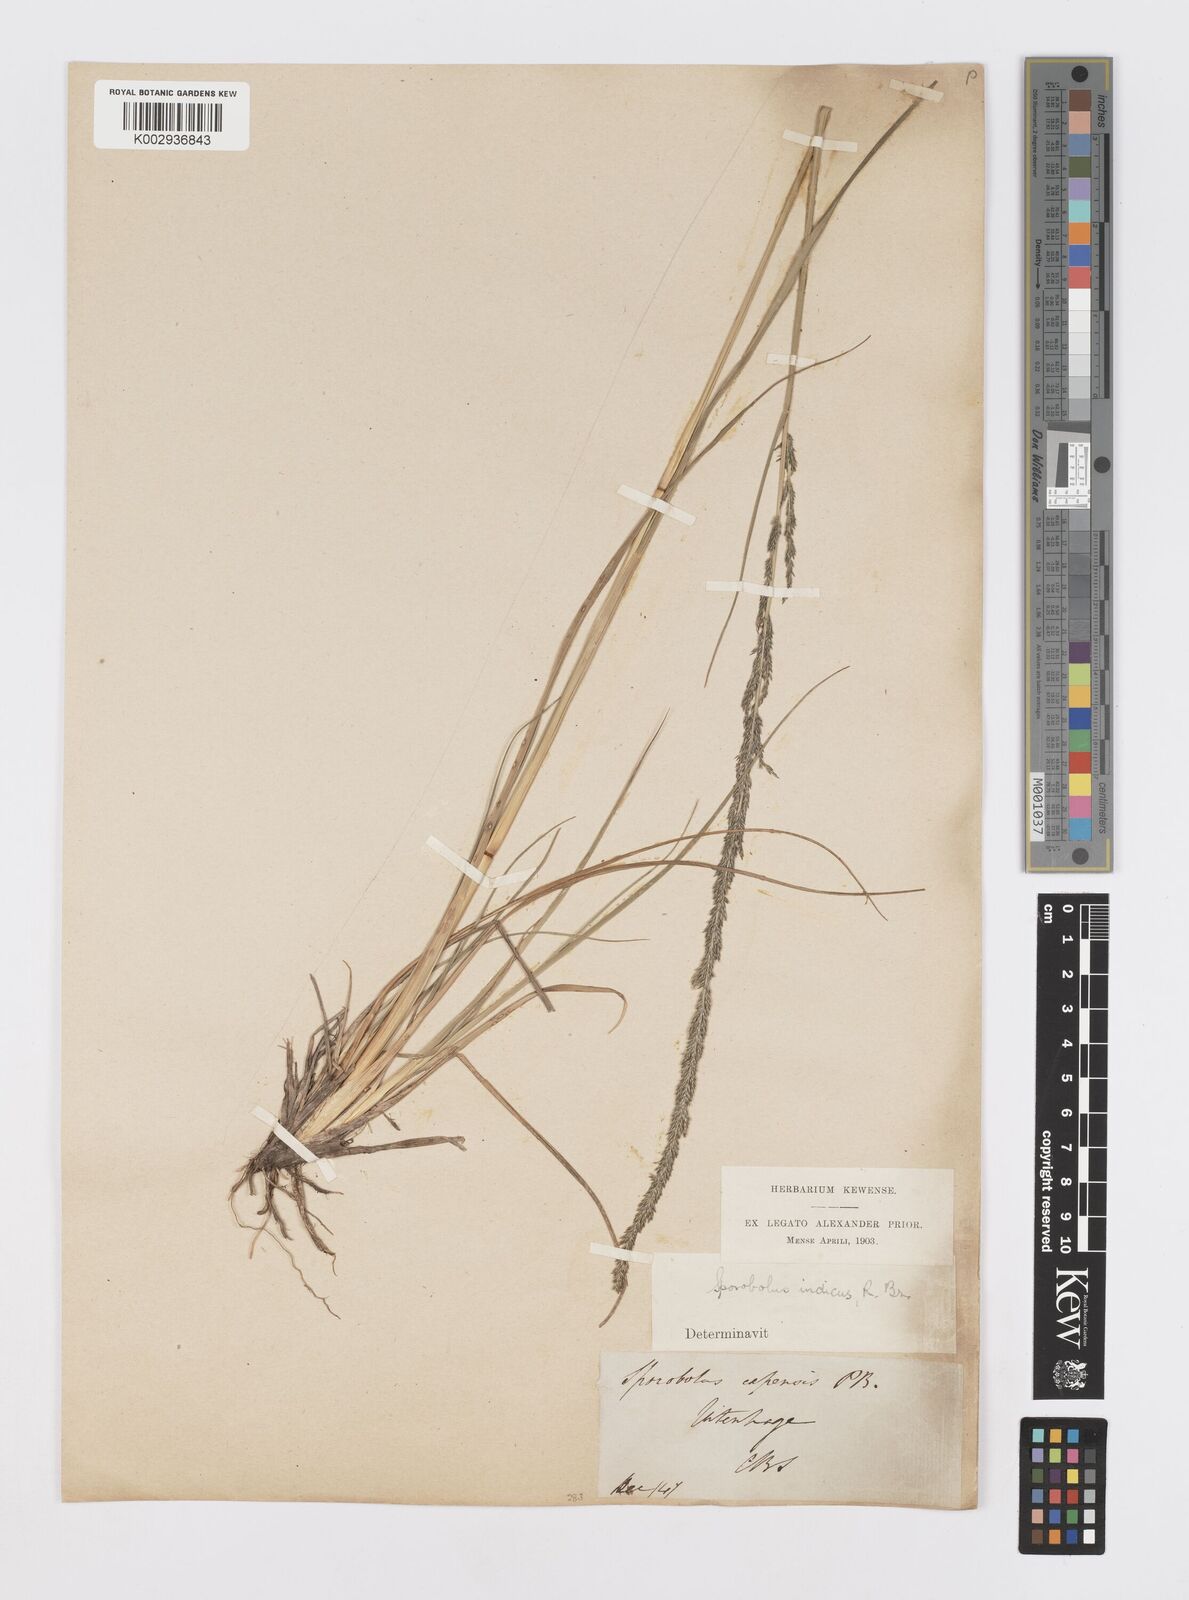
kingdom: Plantae
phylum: Tracheophyta
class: Liliopsida
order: Poales
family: Poaceae
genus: Sporobolus
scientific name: Sporobolus africanus
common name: African dropseed
